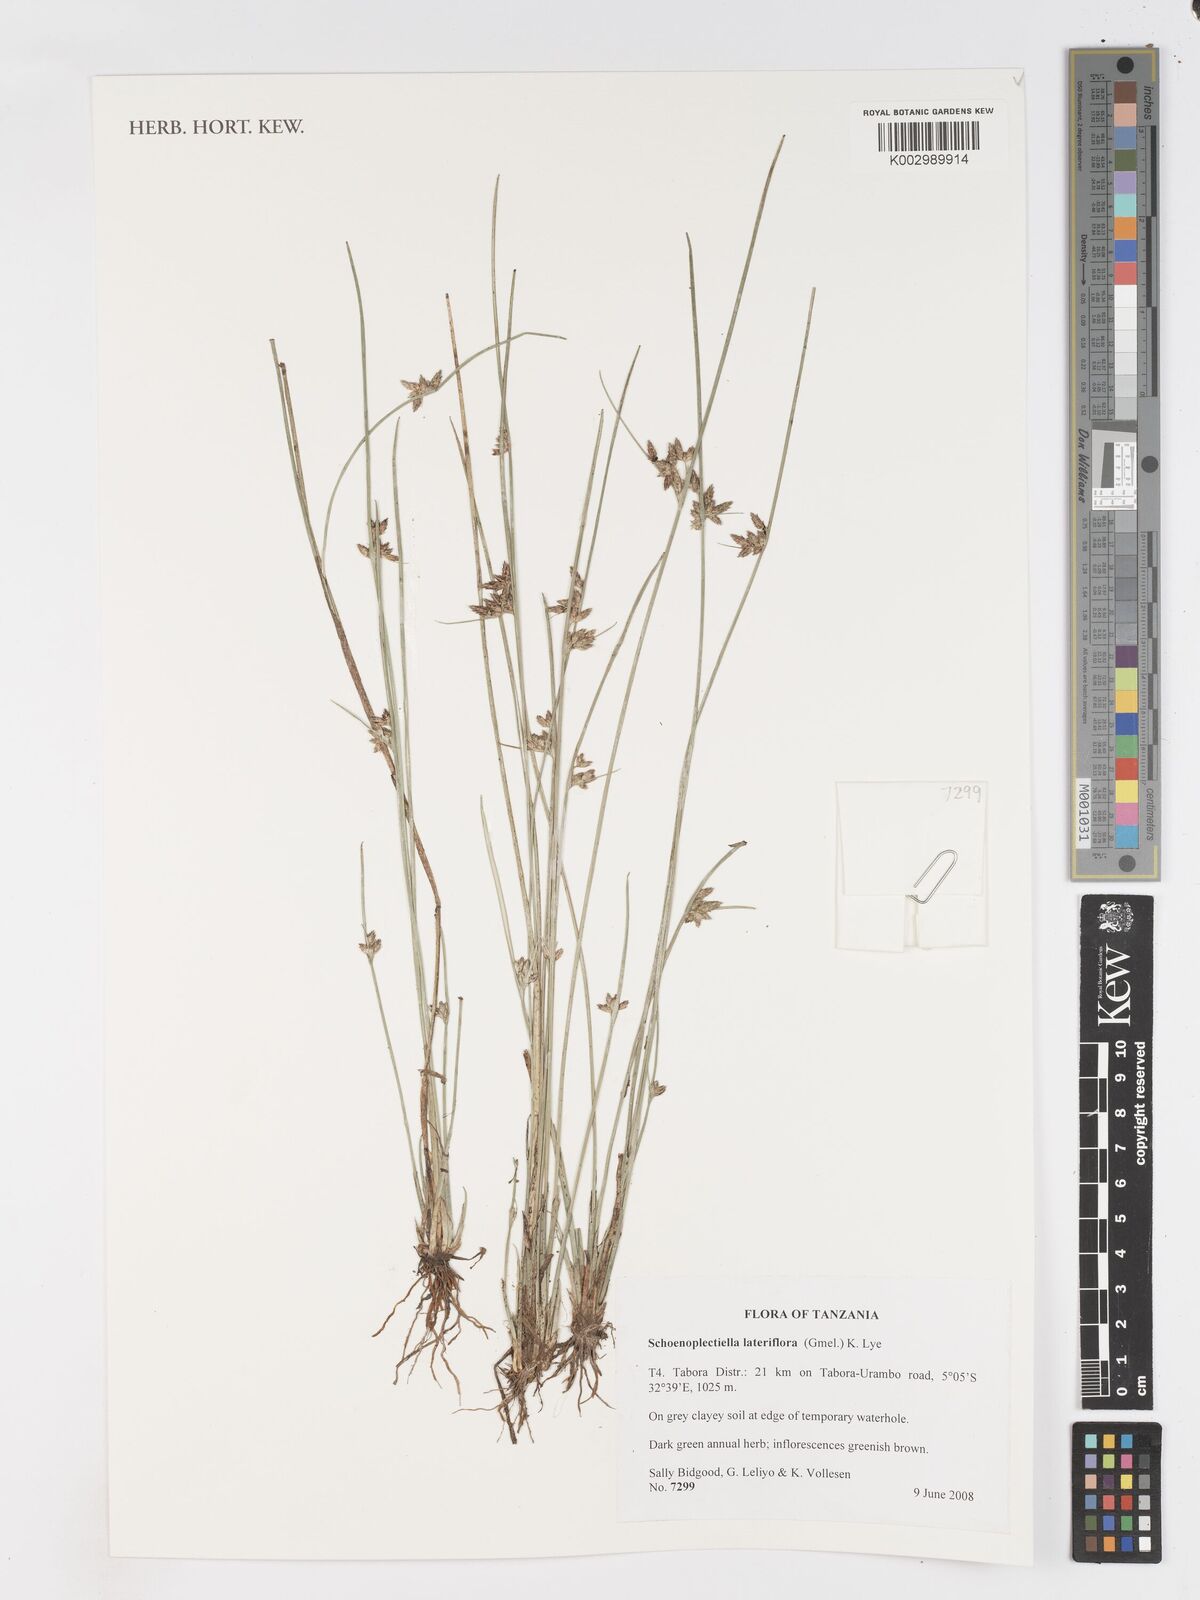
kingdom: Plantae
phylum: Tracheophyta
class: Liliopsida
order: Poales
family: Cyperaceae
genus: Schoenoplectiella
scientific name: Schoenoplectiella lateriflora
